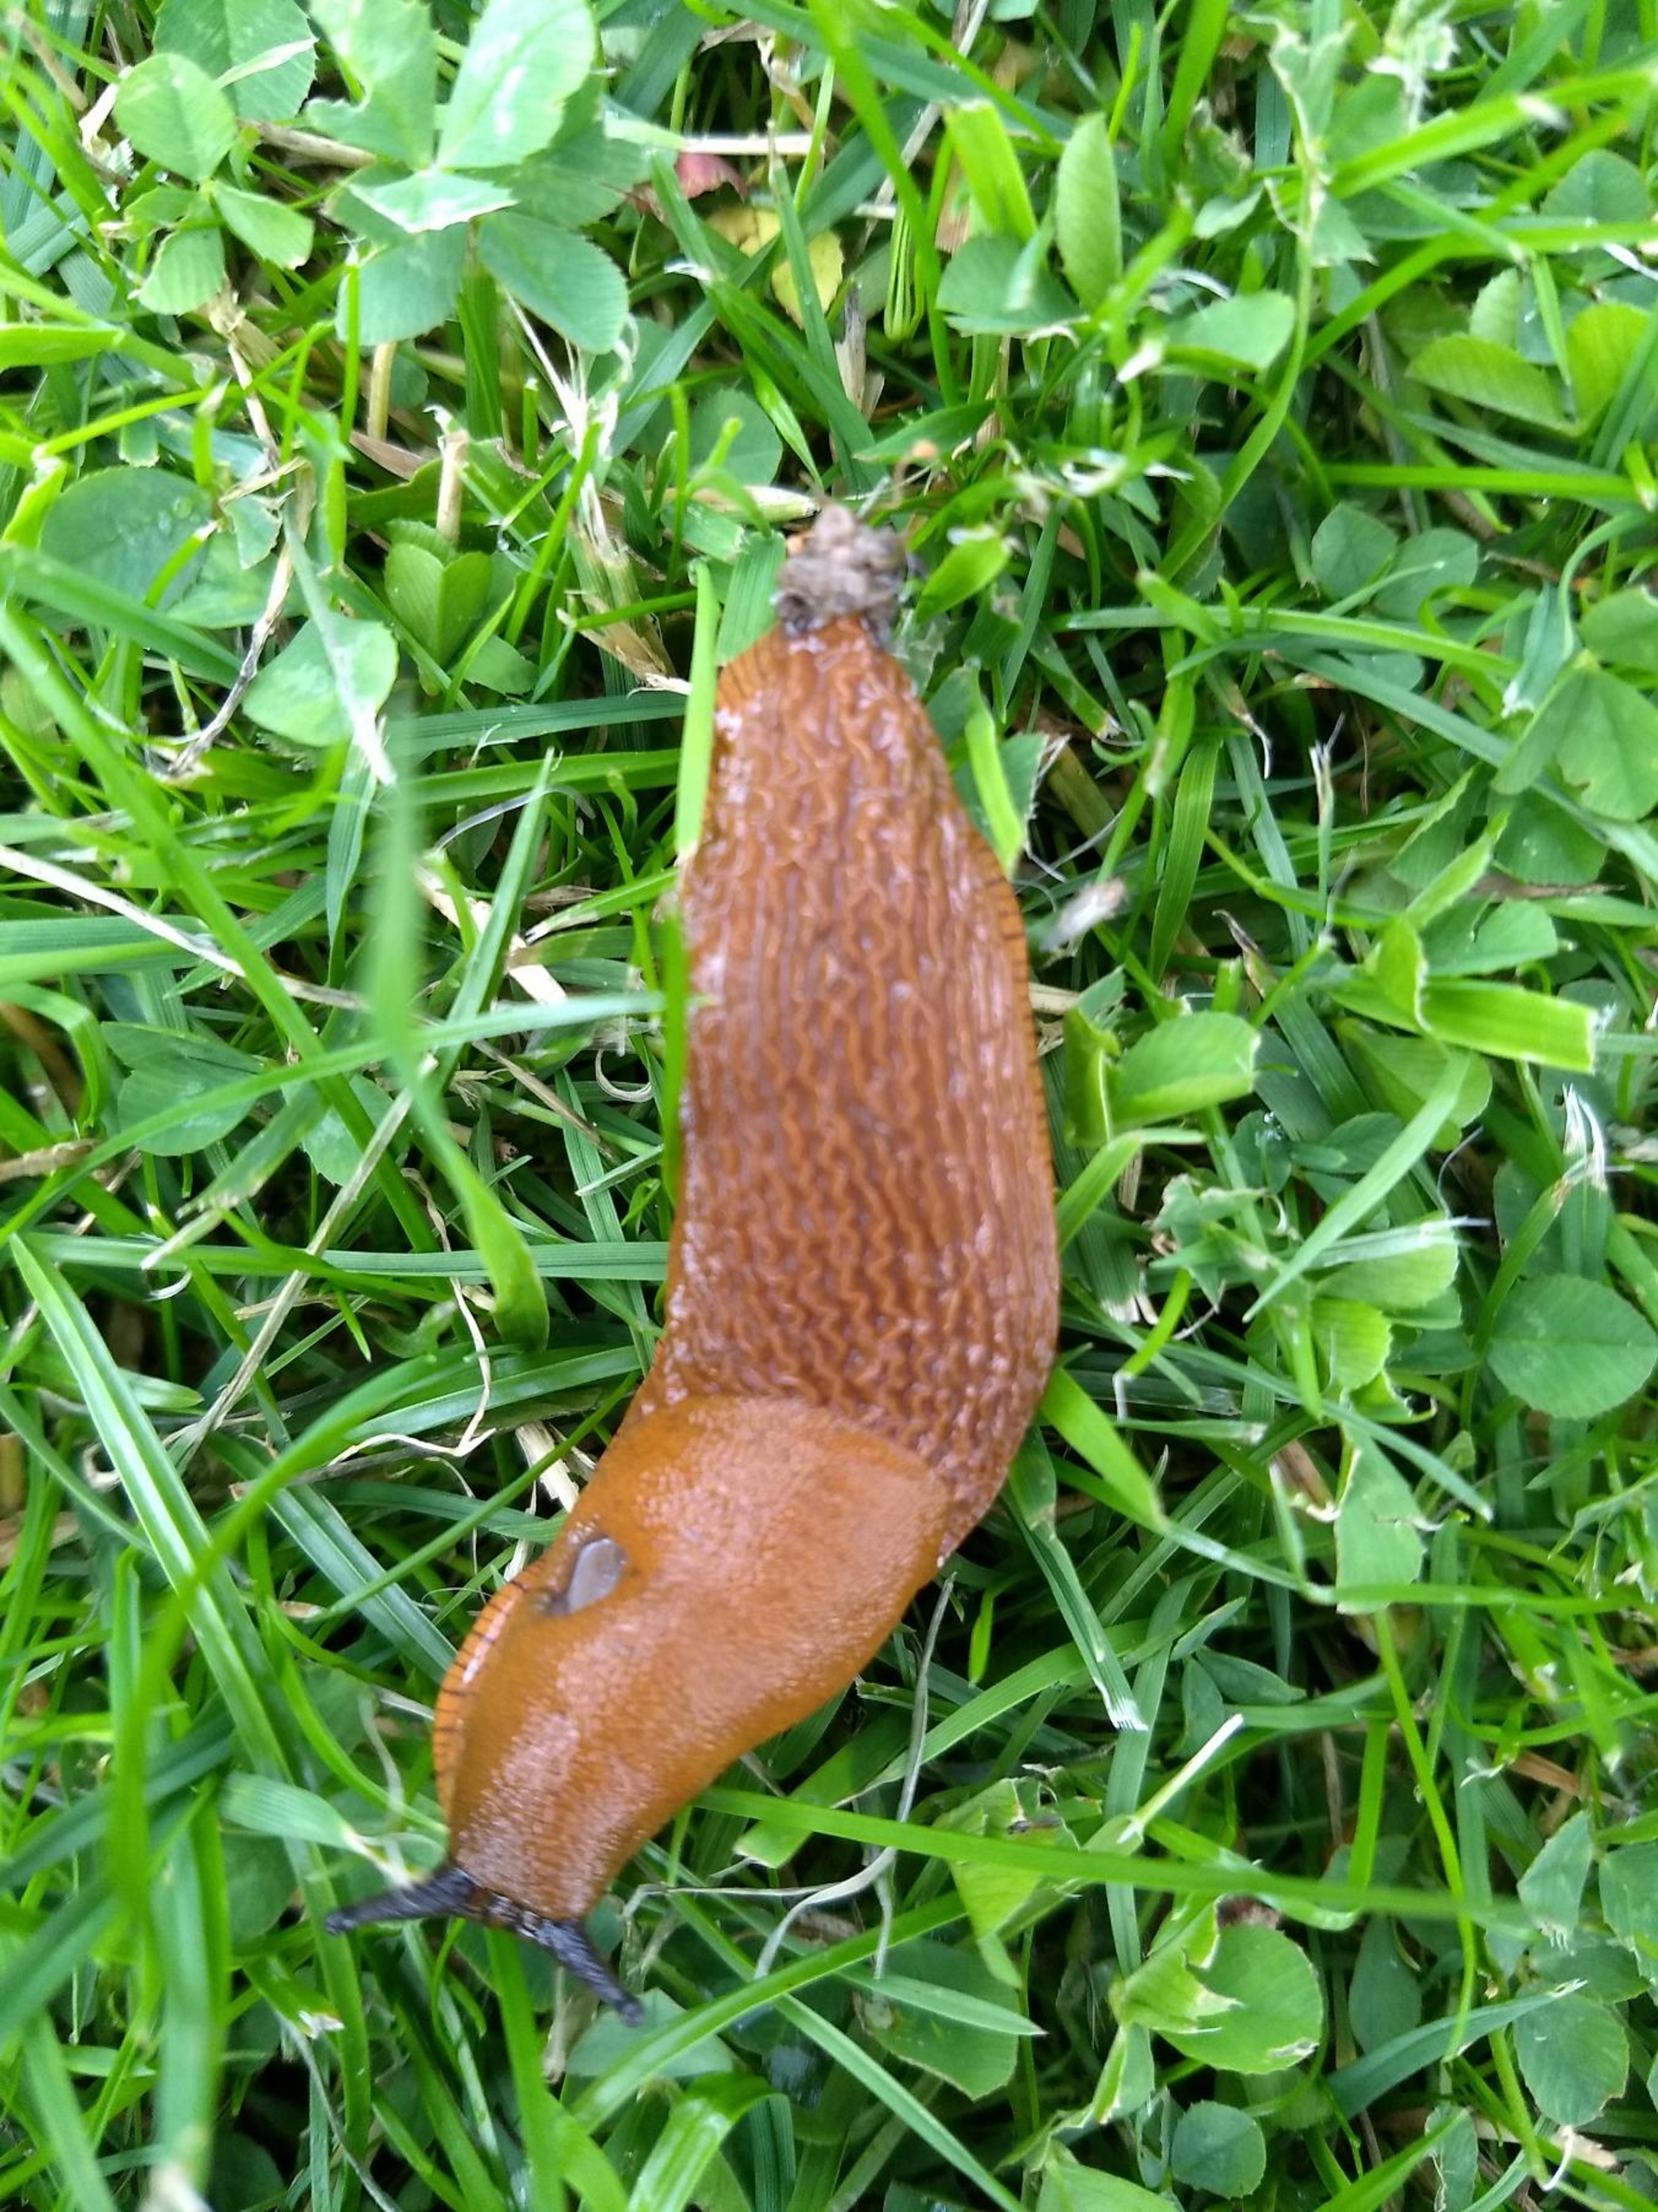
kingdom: Animalia
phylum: Mollusca
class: Gastropoda
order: Stylommatophora
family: Arionidae
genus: Arion
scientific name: Arion vulgaris
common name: Iberisk skovsnegl
